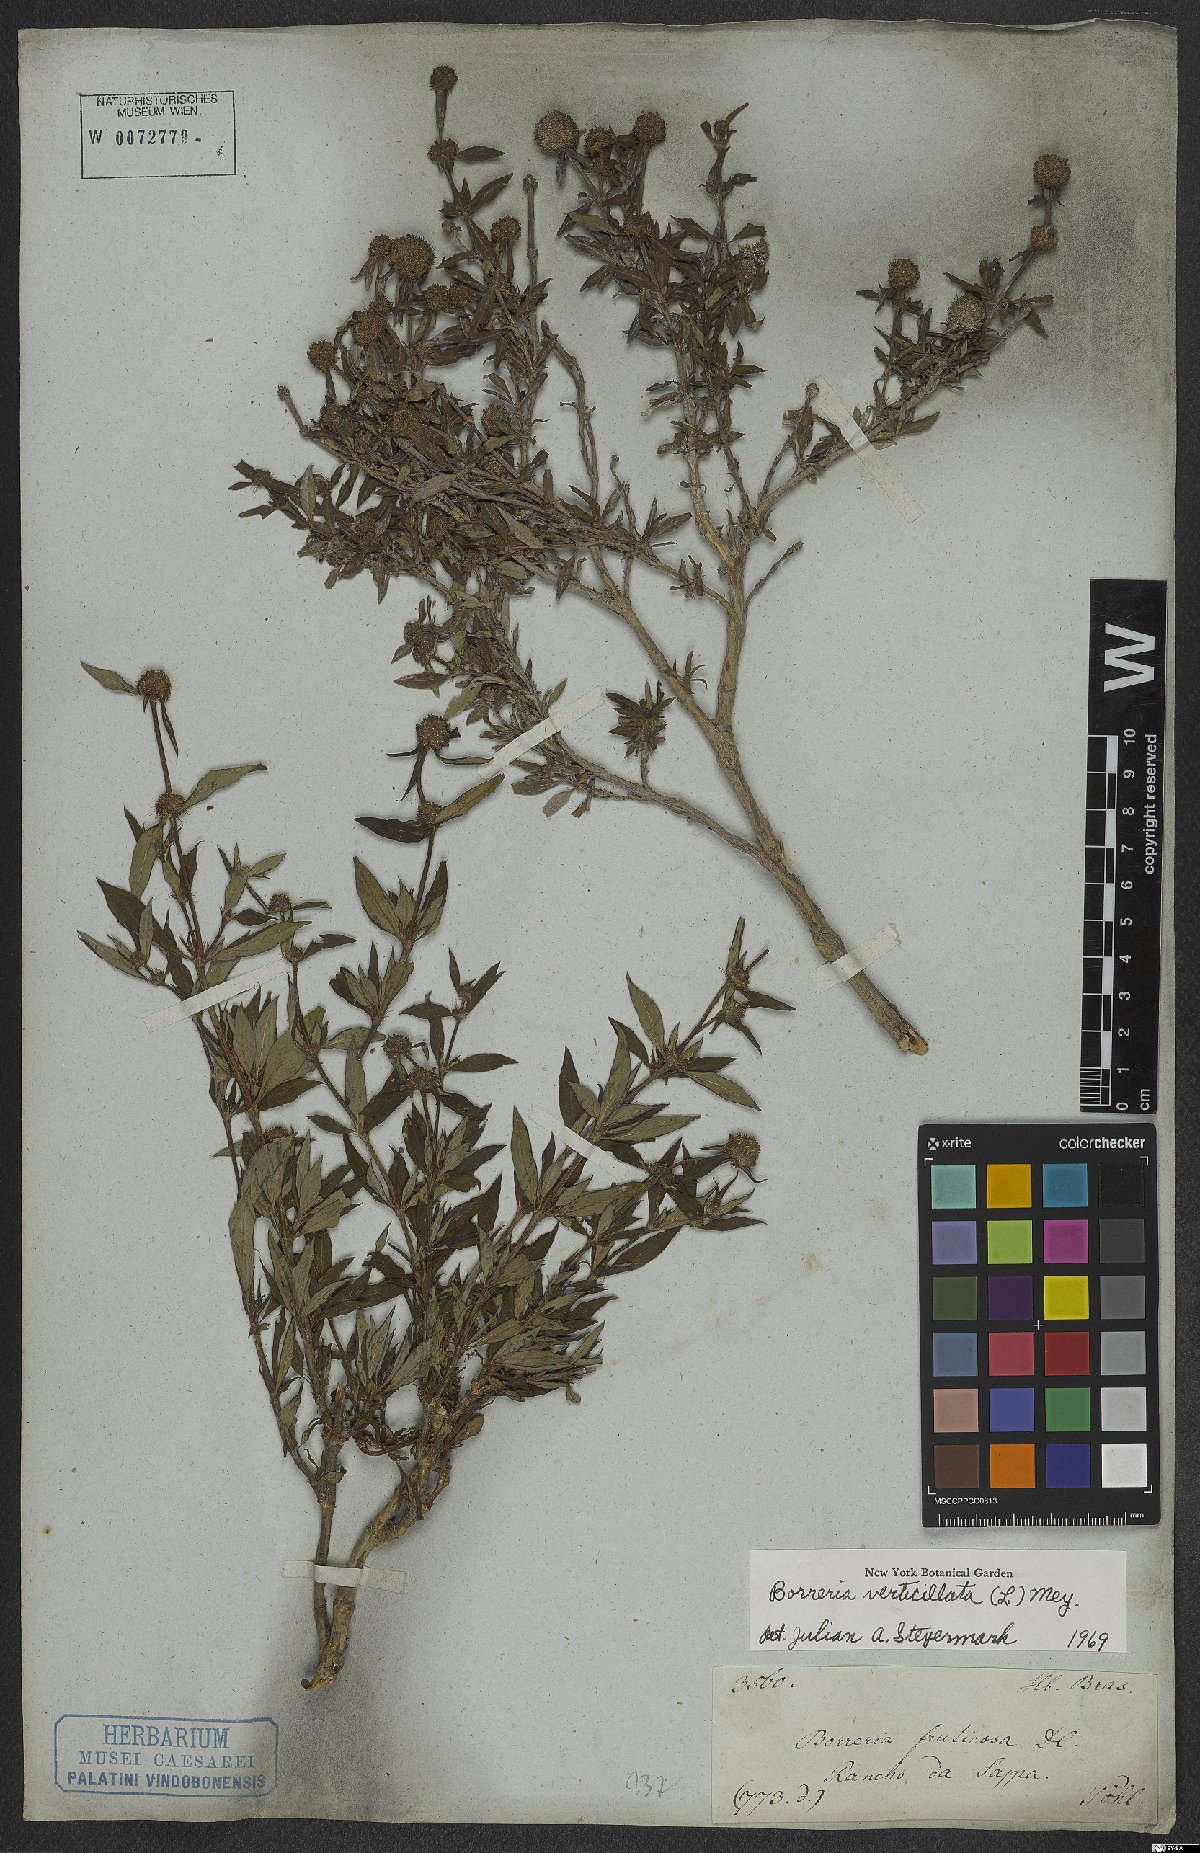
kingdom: Plantae
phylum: Tracheophyta
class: Magnoliopsida
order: Gentianales
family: Rubiaceae
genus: Spermacoce
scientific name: Spermacoce verticillata
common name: Shrubby false buttonweed
